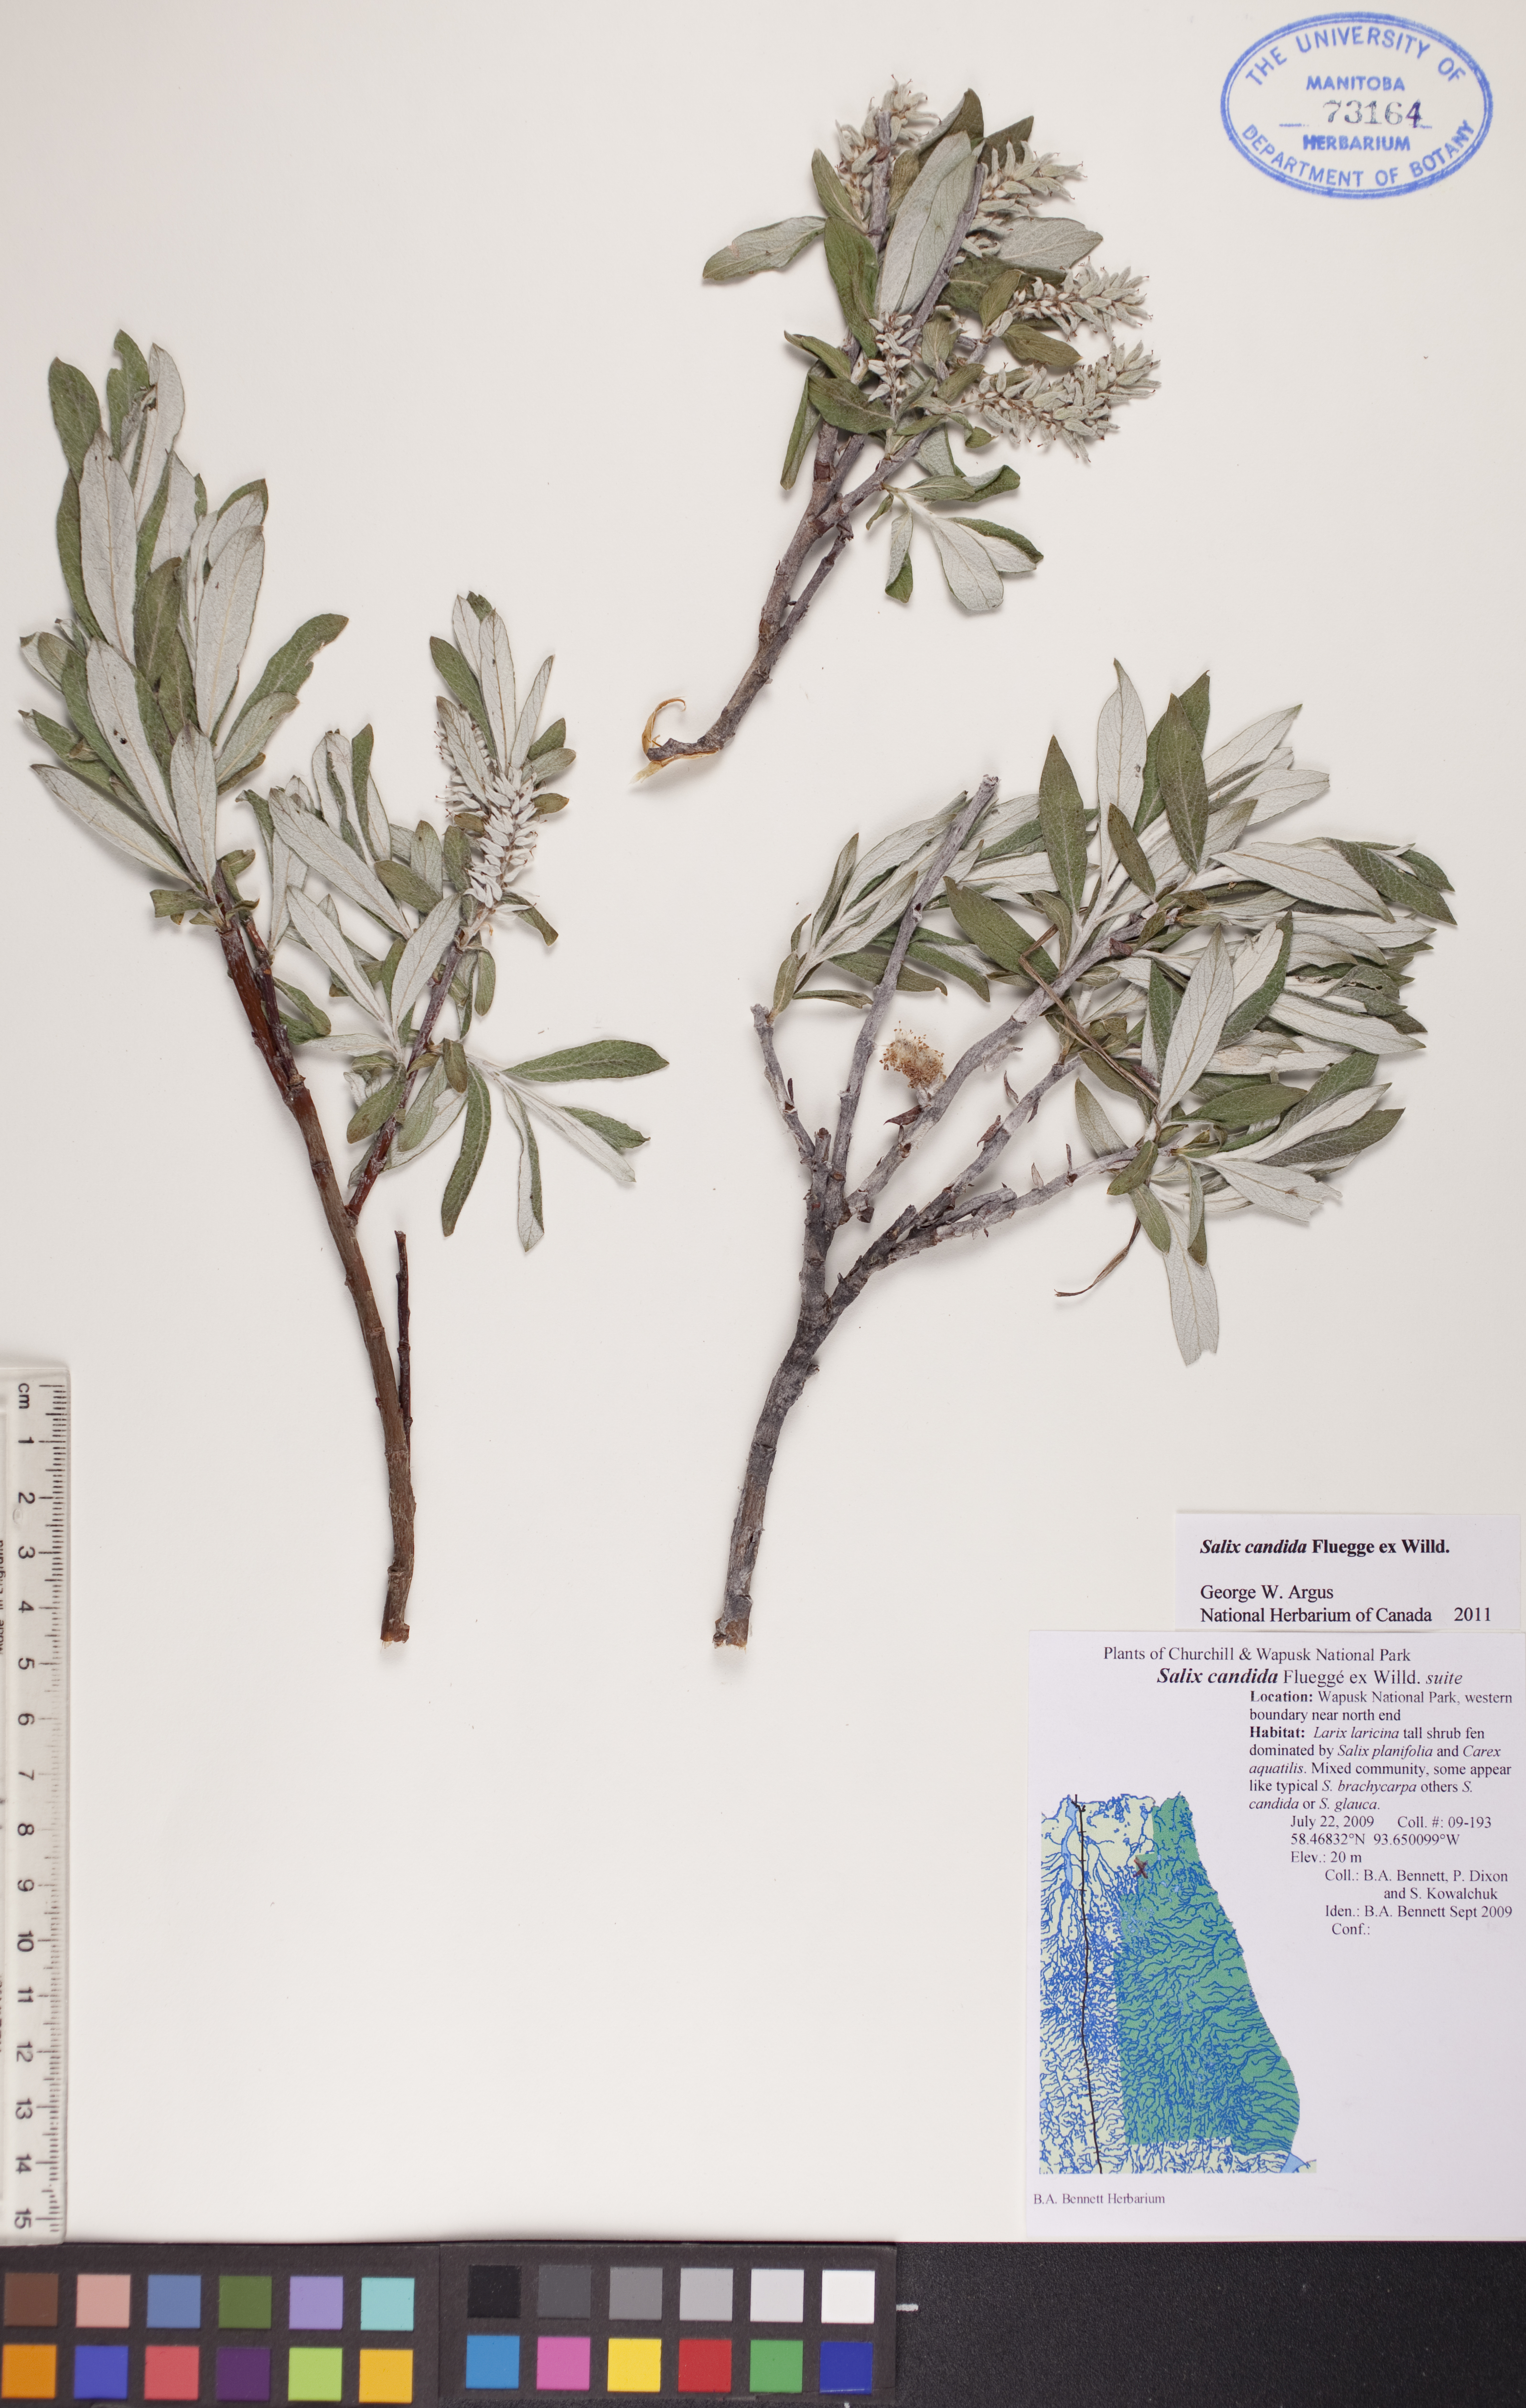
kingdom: Plantae
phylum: Tracheophyta
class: Magnoliopsida
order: Malpighiales
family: Salicaceae
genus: Salix
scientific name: Salix candida
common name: Hoary willow
